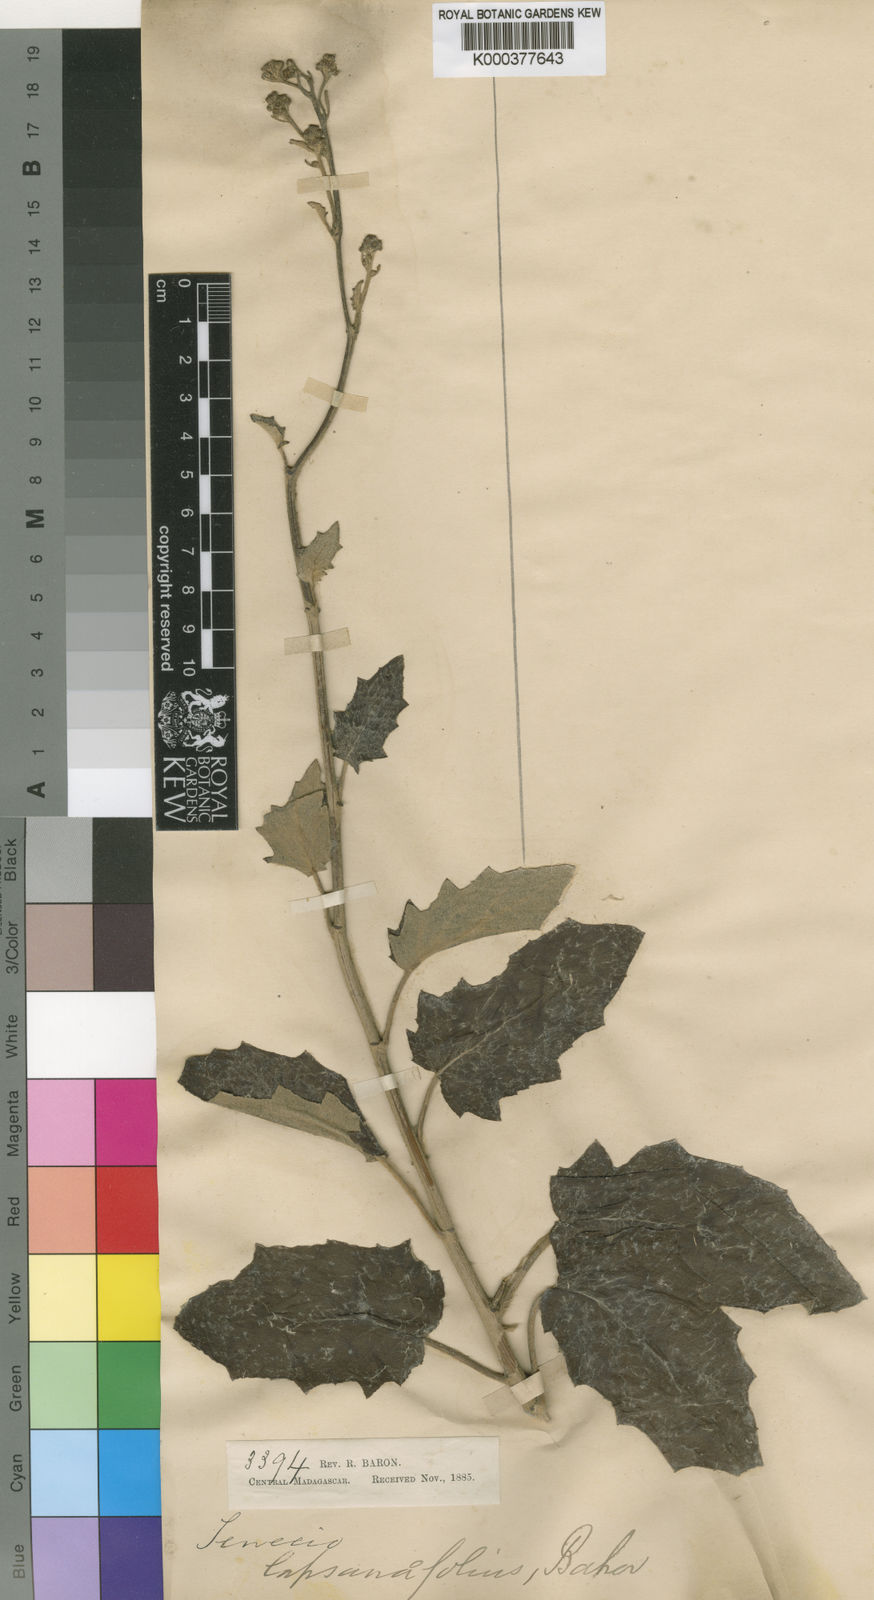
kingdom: Plantae
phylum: Tracheophyta
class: Magnoliopsida
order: Asterales
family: Asteraceae
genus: Hubertia
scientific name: Hubertia
